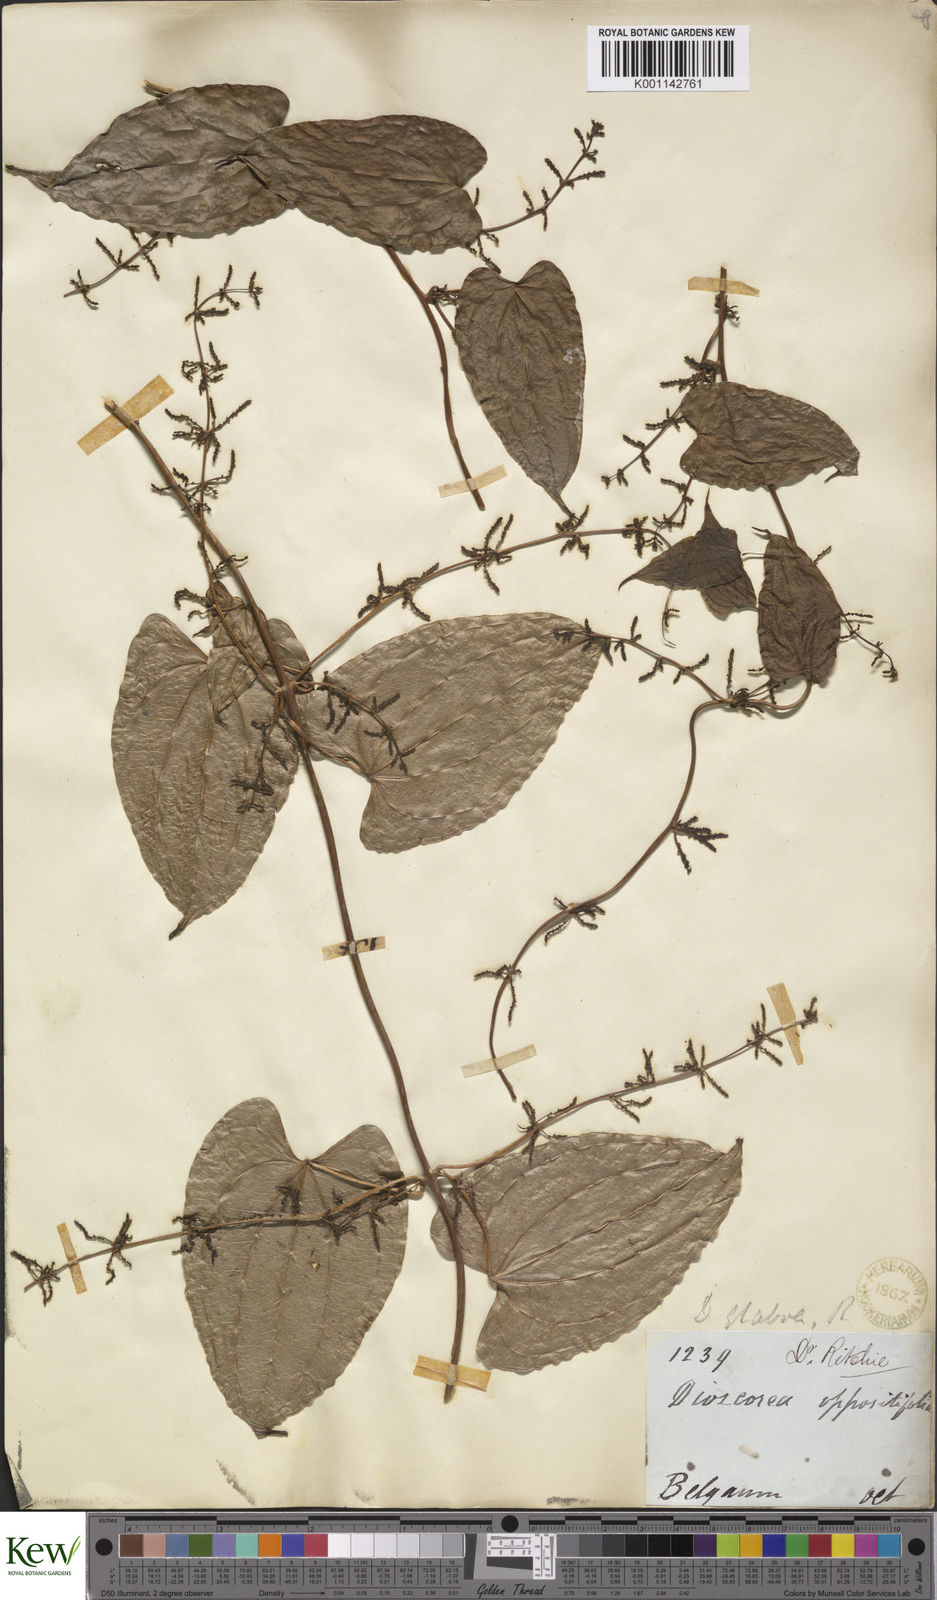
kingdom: Plantae
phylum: Tracheophyta
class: Liliopsida
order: Dioscoreales
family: Dioscoreaceae
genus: Dioscorea
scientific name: Dioscorea belophylla
